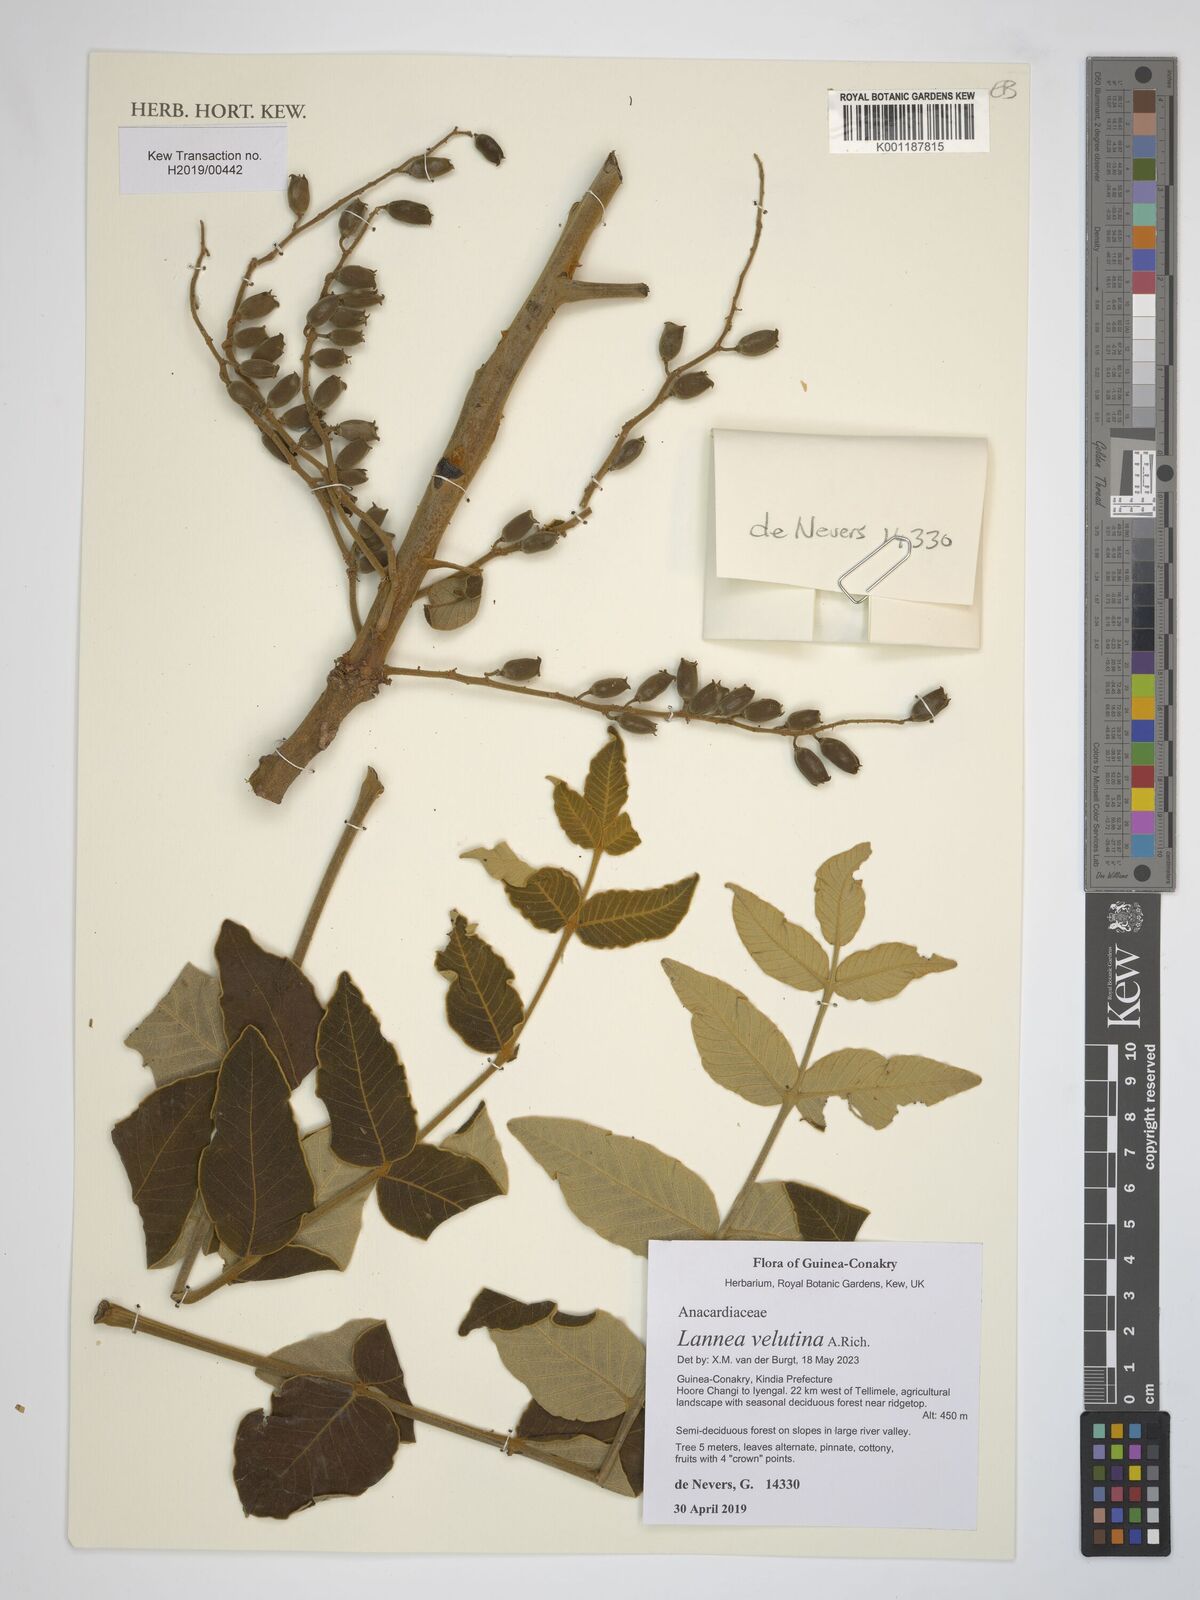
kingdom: Plantae
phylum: Tracheophyta
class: Magnoliopsida
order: Sapindales
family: Anacardiaceae
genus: Lannea
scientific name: Lannea velutina
